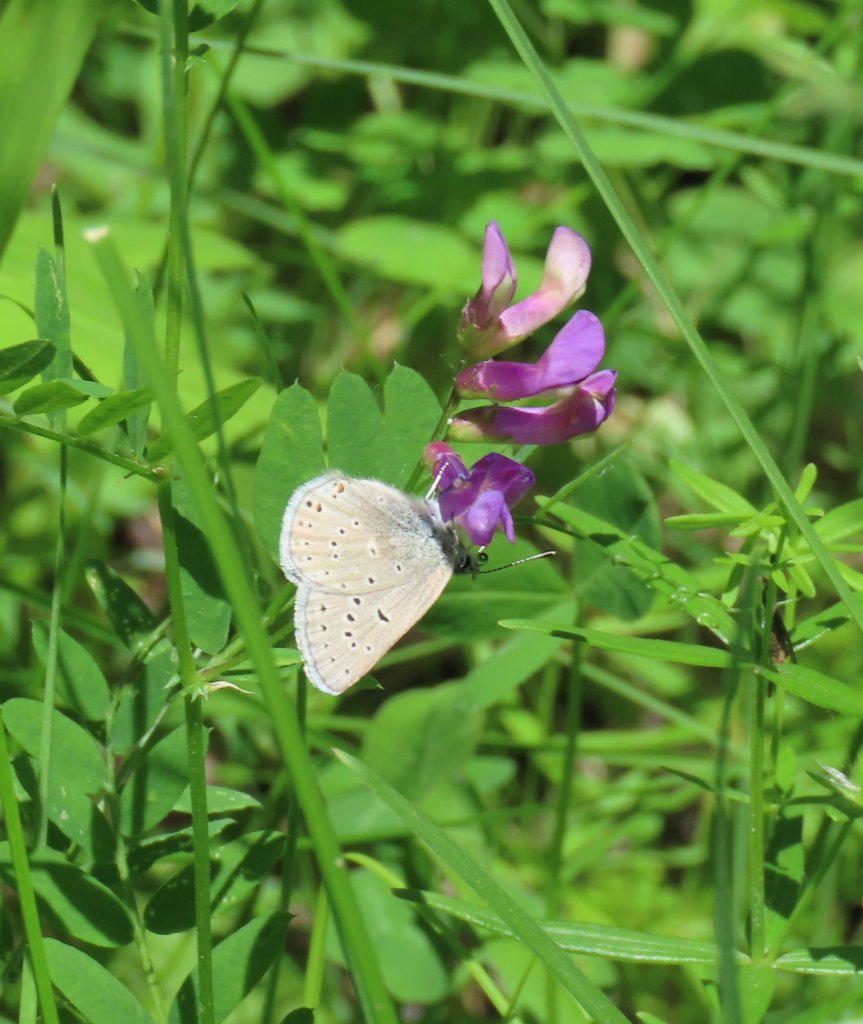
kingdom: Animalia
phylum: Arthropoda
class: Insecta
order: Lepidoptera
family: Lycaenidae
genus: Plebejus
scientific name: Plebejus saepiolus
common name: Greenish Blue
